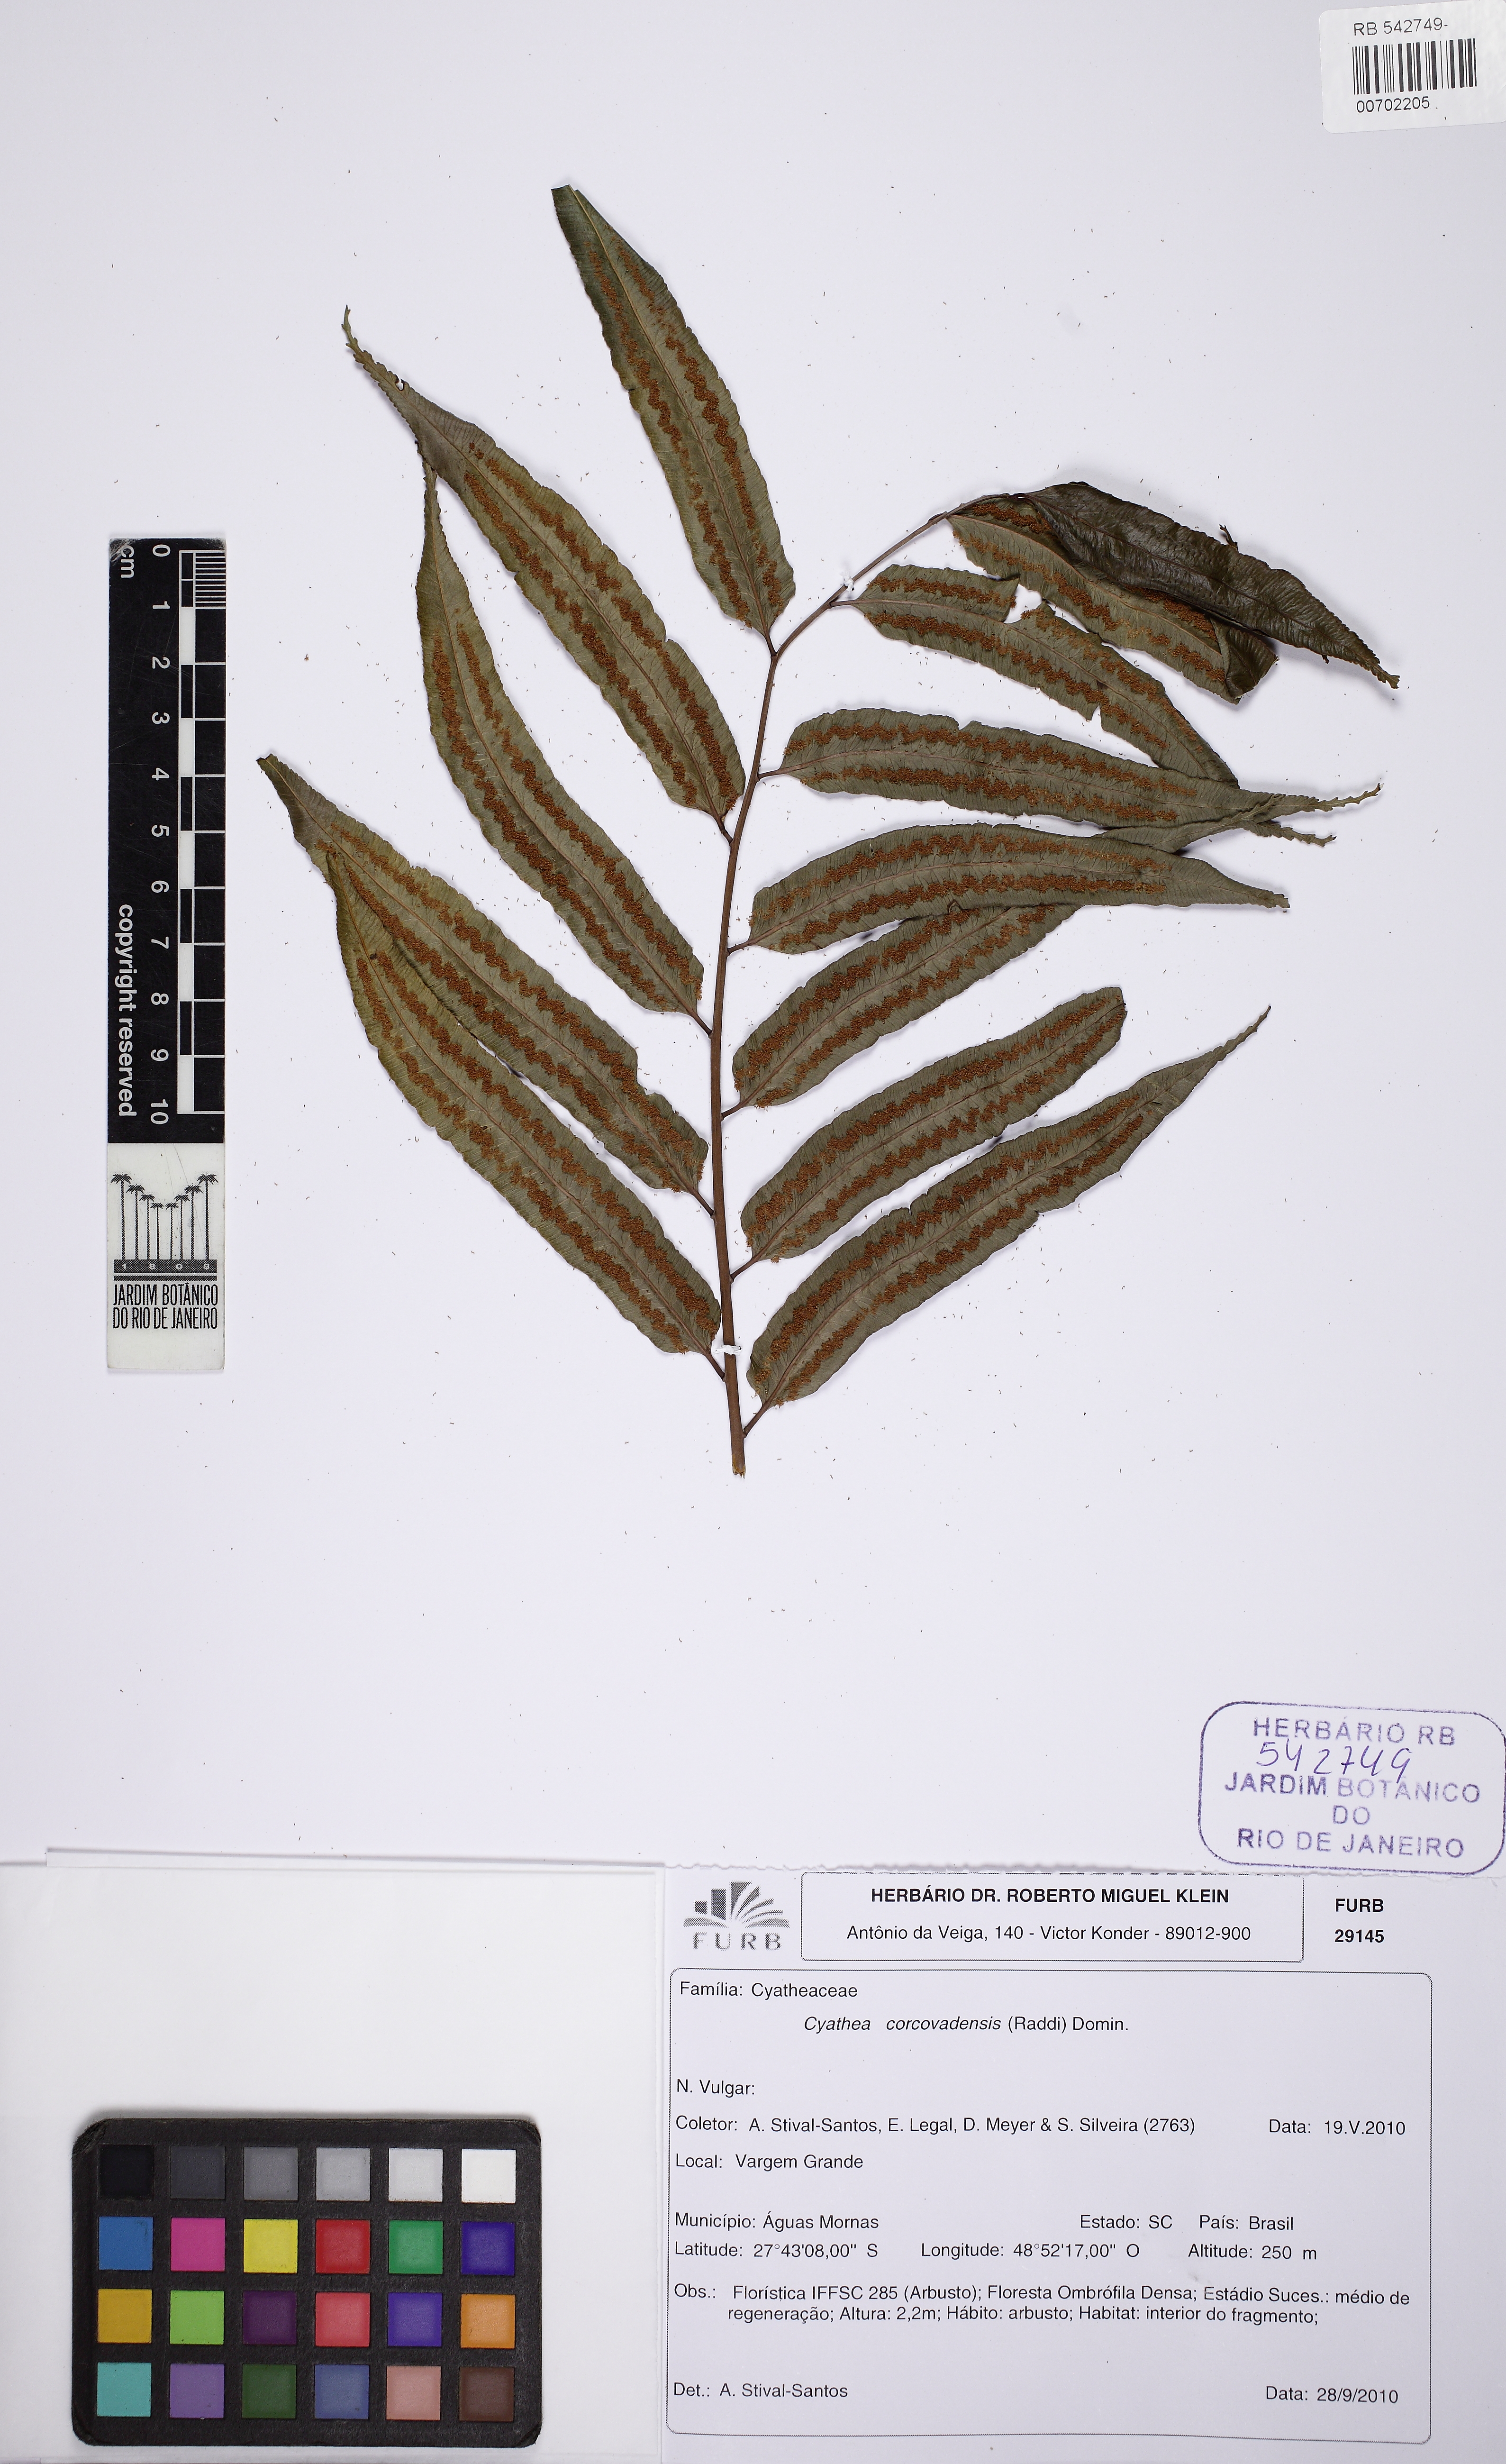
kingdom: Plantae
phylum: Tracheophyta
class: Polypodiopsida
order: Cyatheales
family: Cyatheaceae
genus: Cyathea
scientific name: Cyathea corcovadensis
